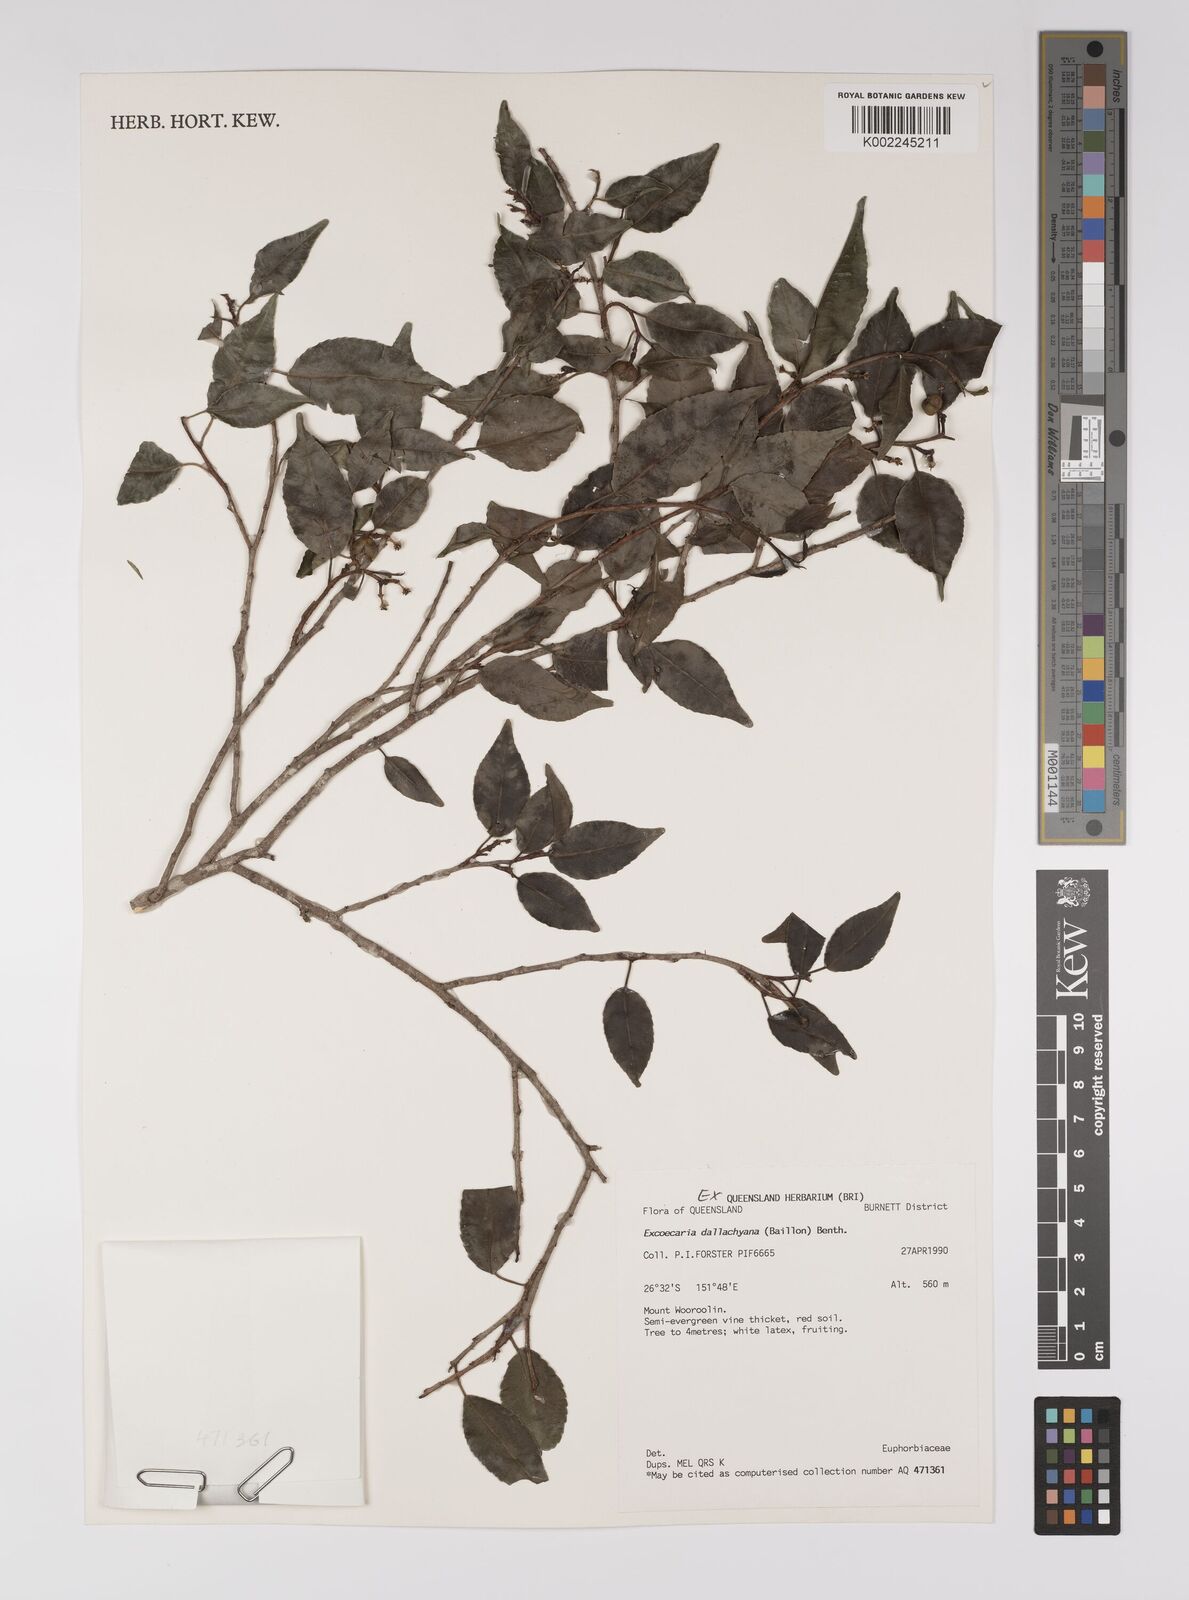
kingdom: Plantae
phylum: Tracheophyta
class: Magnoliopsida
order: Malpighiales
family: Euphorbiaceae
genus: Excoecaria
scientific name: Excoecaria dallachyana
